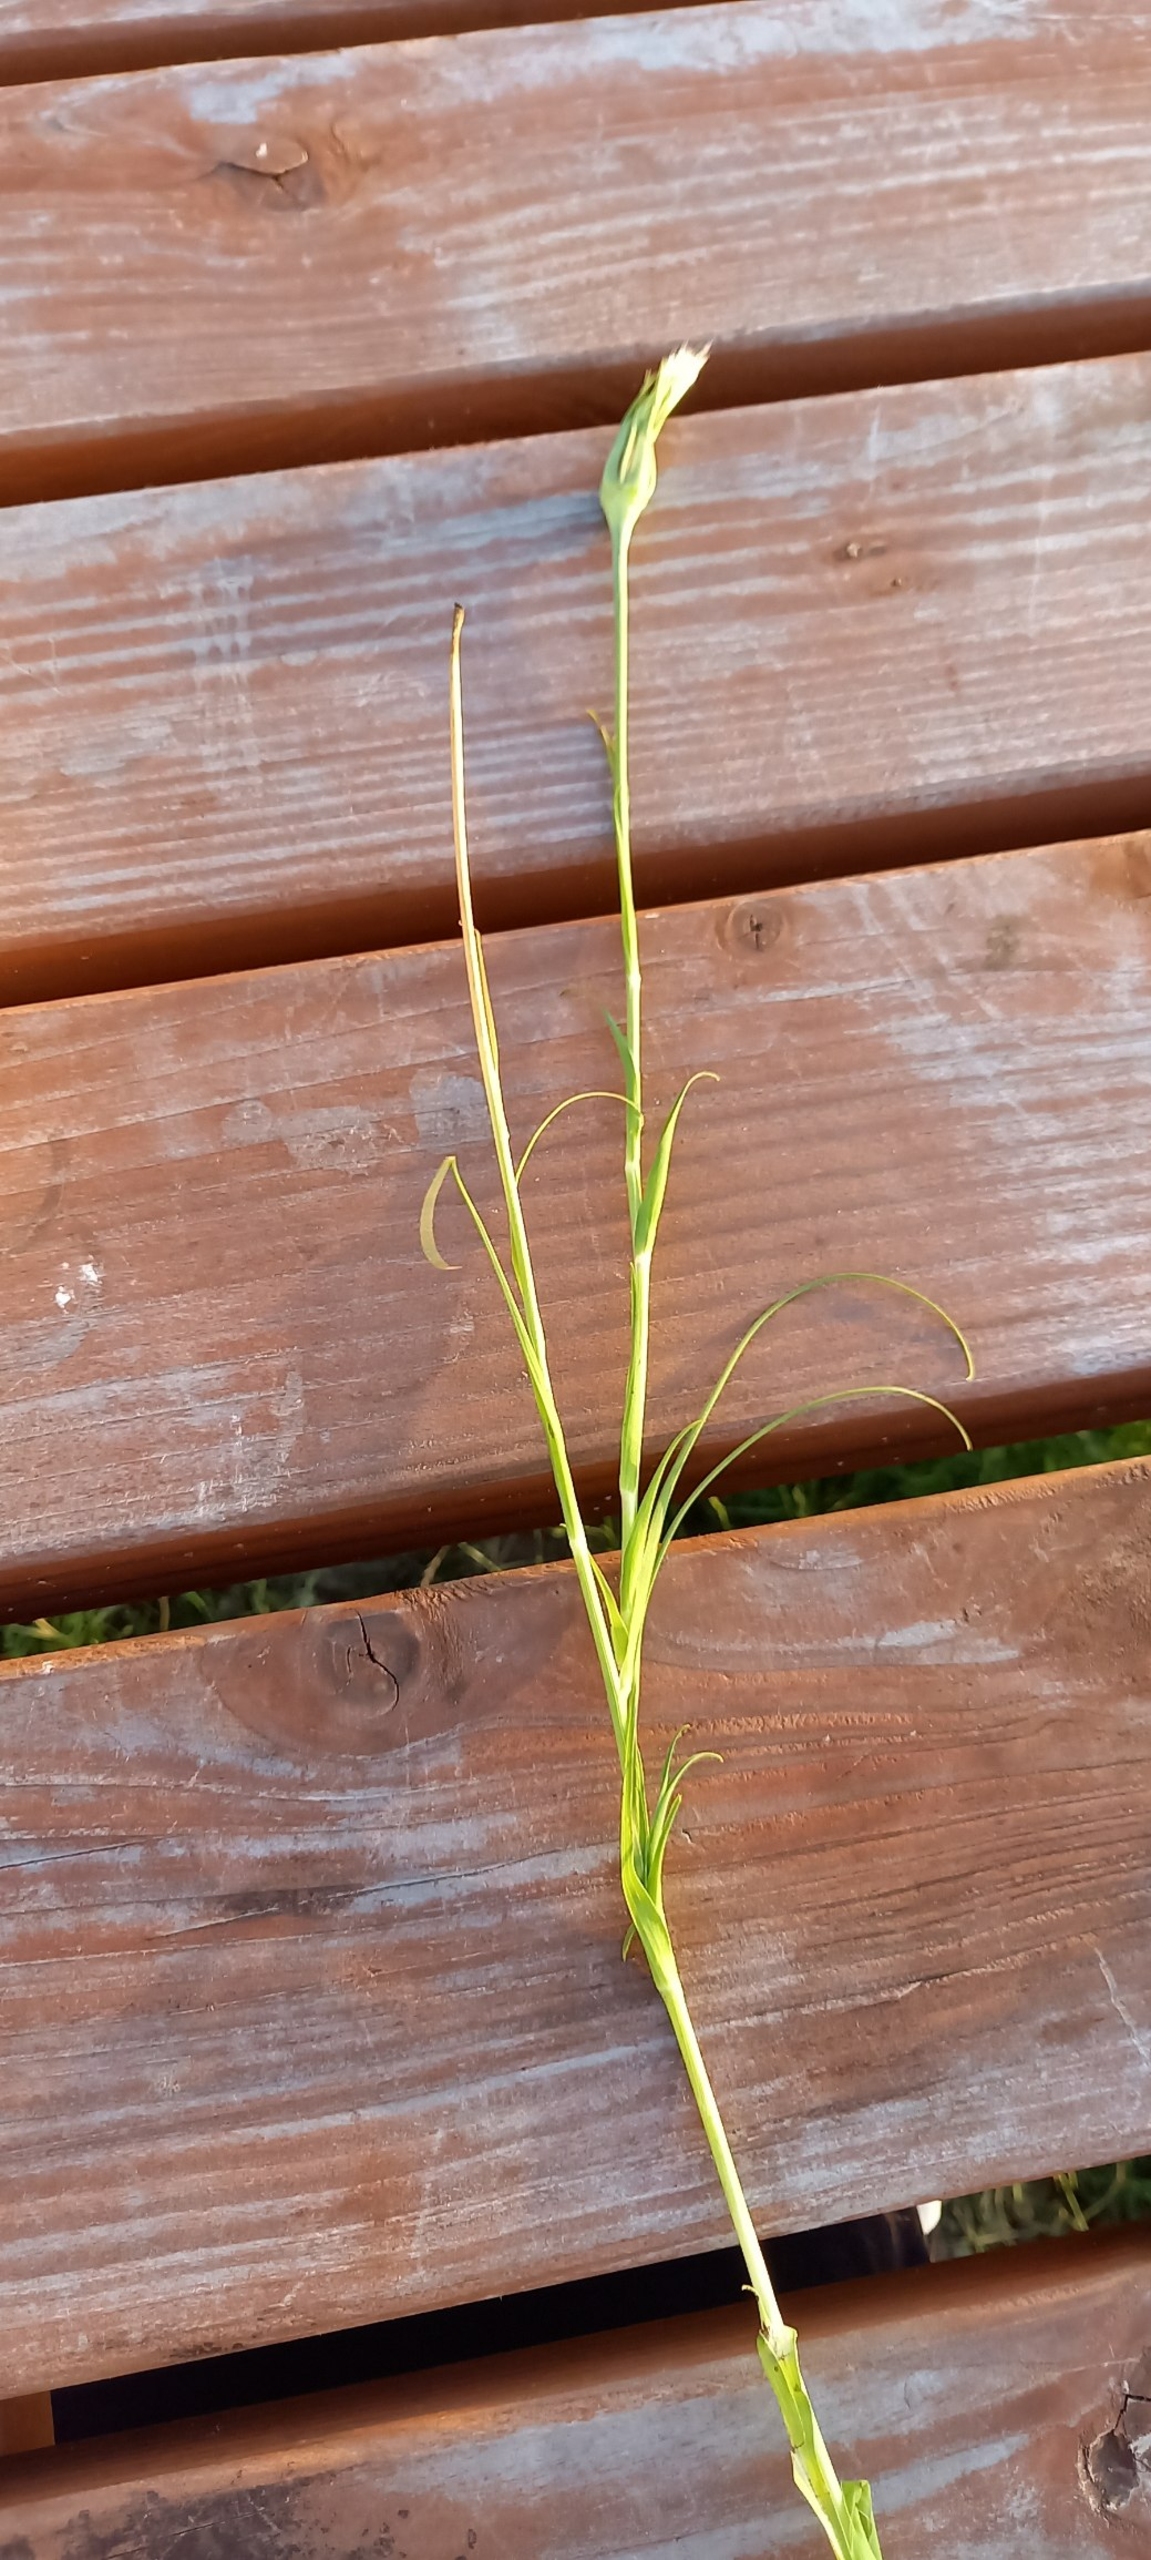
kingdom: Plantae
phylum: Tracheophyta
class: Magnoliopsida
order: Asterales
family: Asteraceae
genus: Tragopogon
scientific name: Tragopogon pratensis
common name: Gedeskæg
